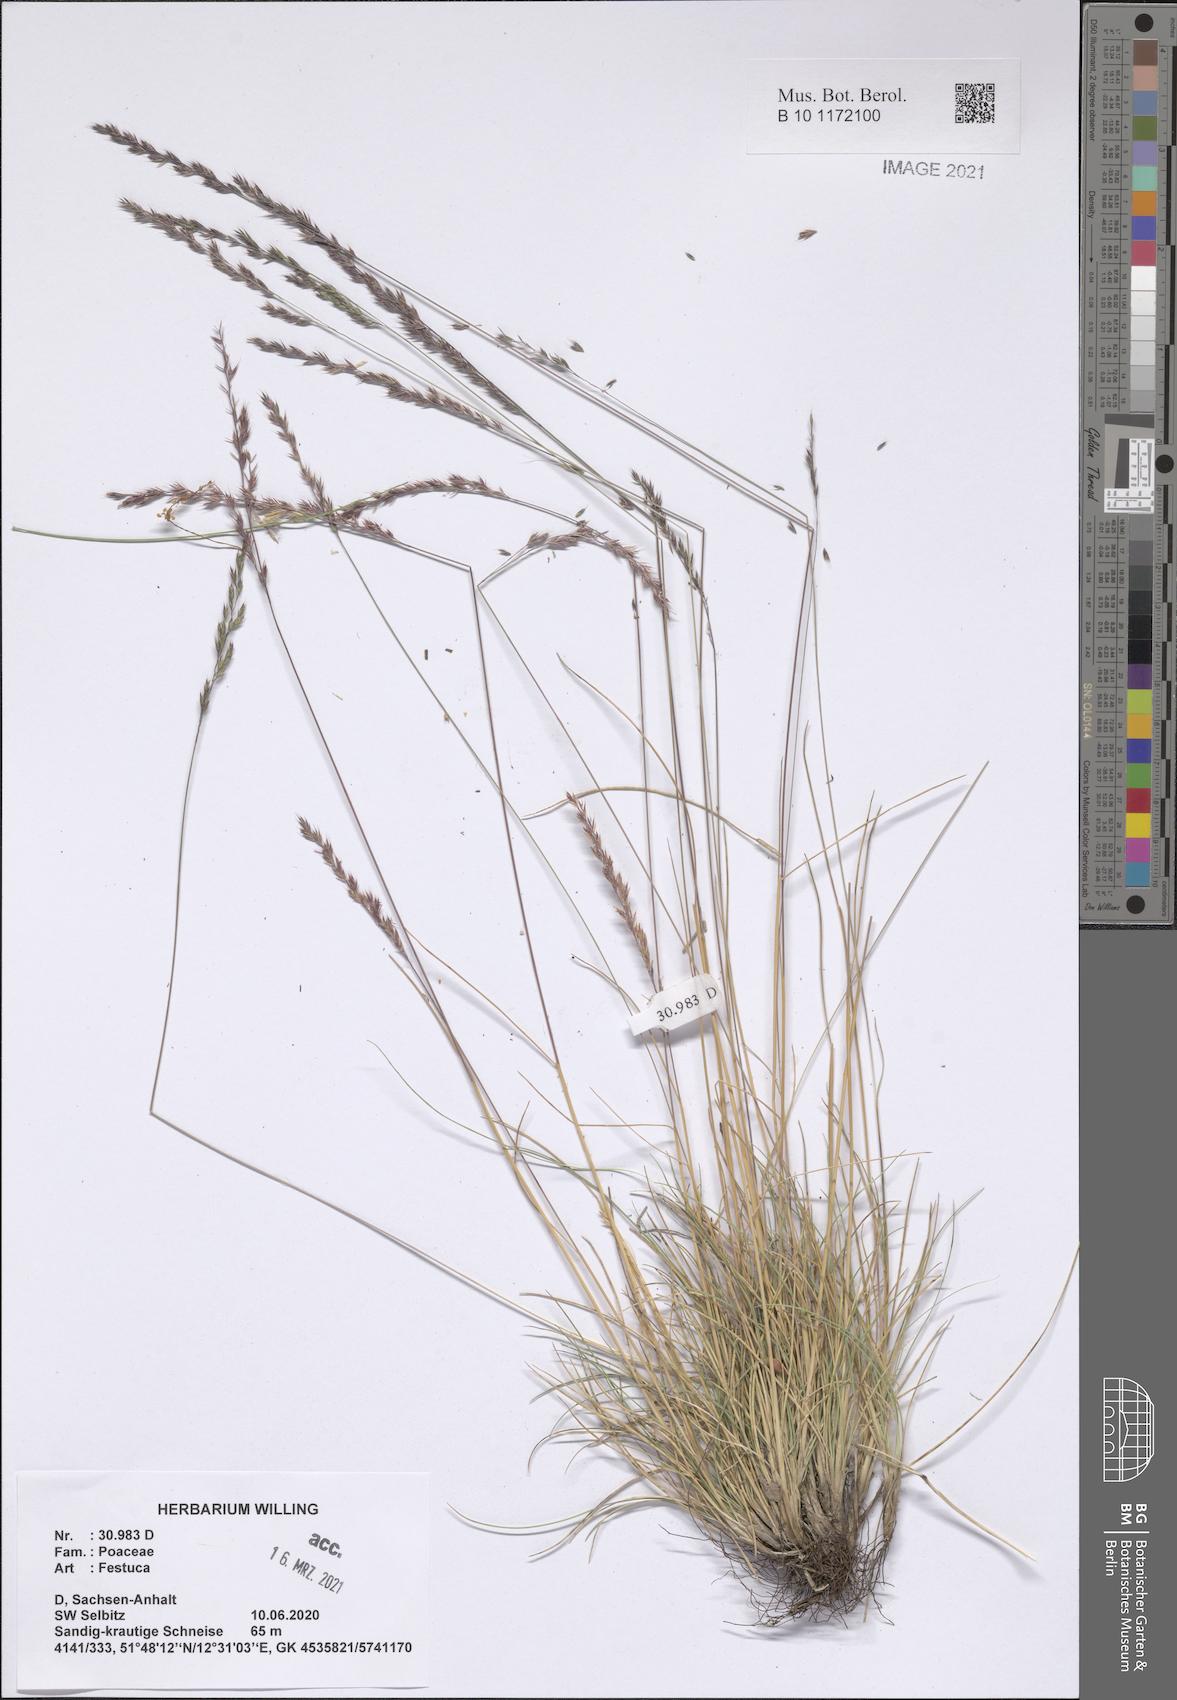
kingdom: Plantae
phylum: Tracheophyta
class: Liliopsida
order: Poales
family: Poaceae
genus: Festuca
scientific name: Festuca
